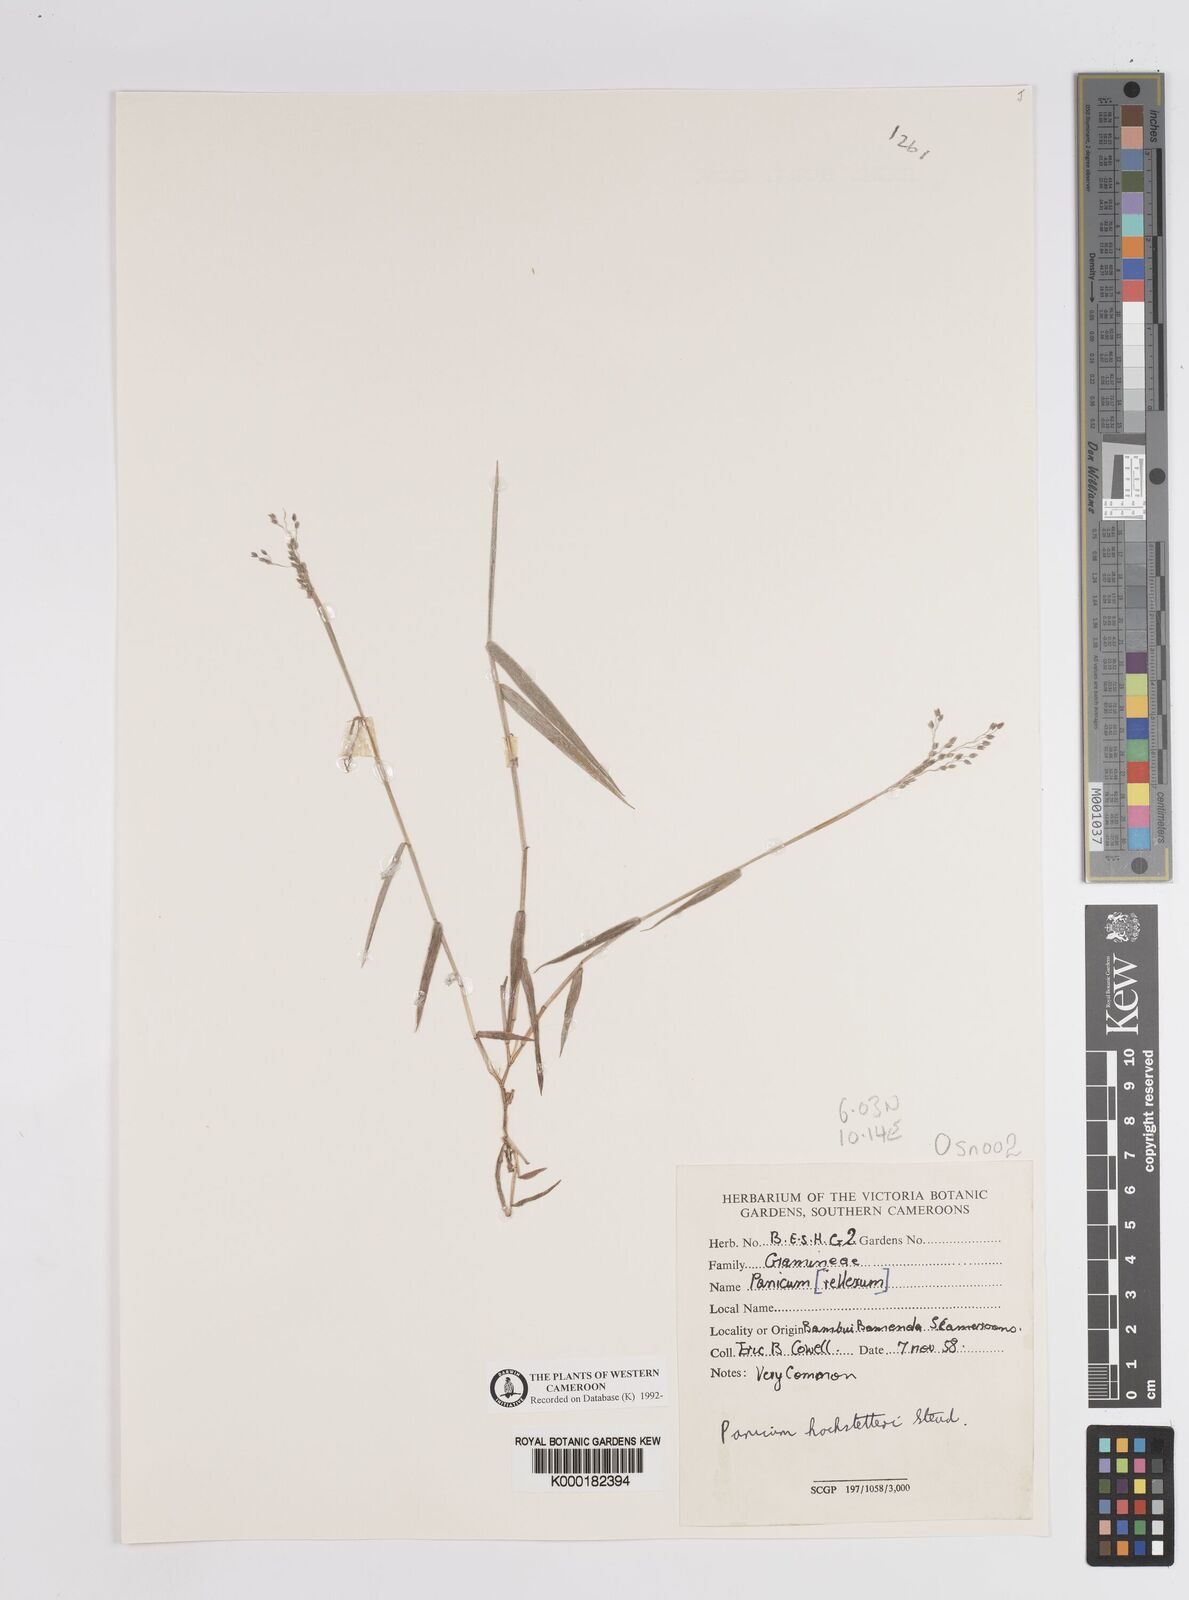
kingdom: Plantae
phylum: Tracheophyta
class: Liliopsida
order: Poales
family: Poaceae
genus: Panicum
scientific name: Panicum hochstetteri
